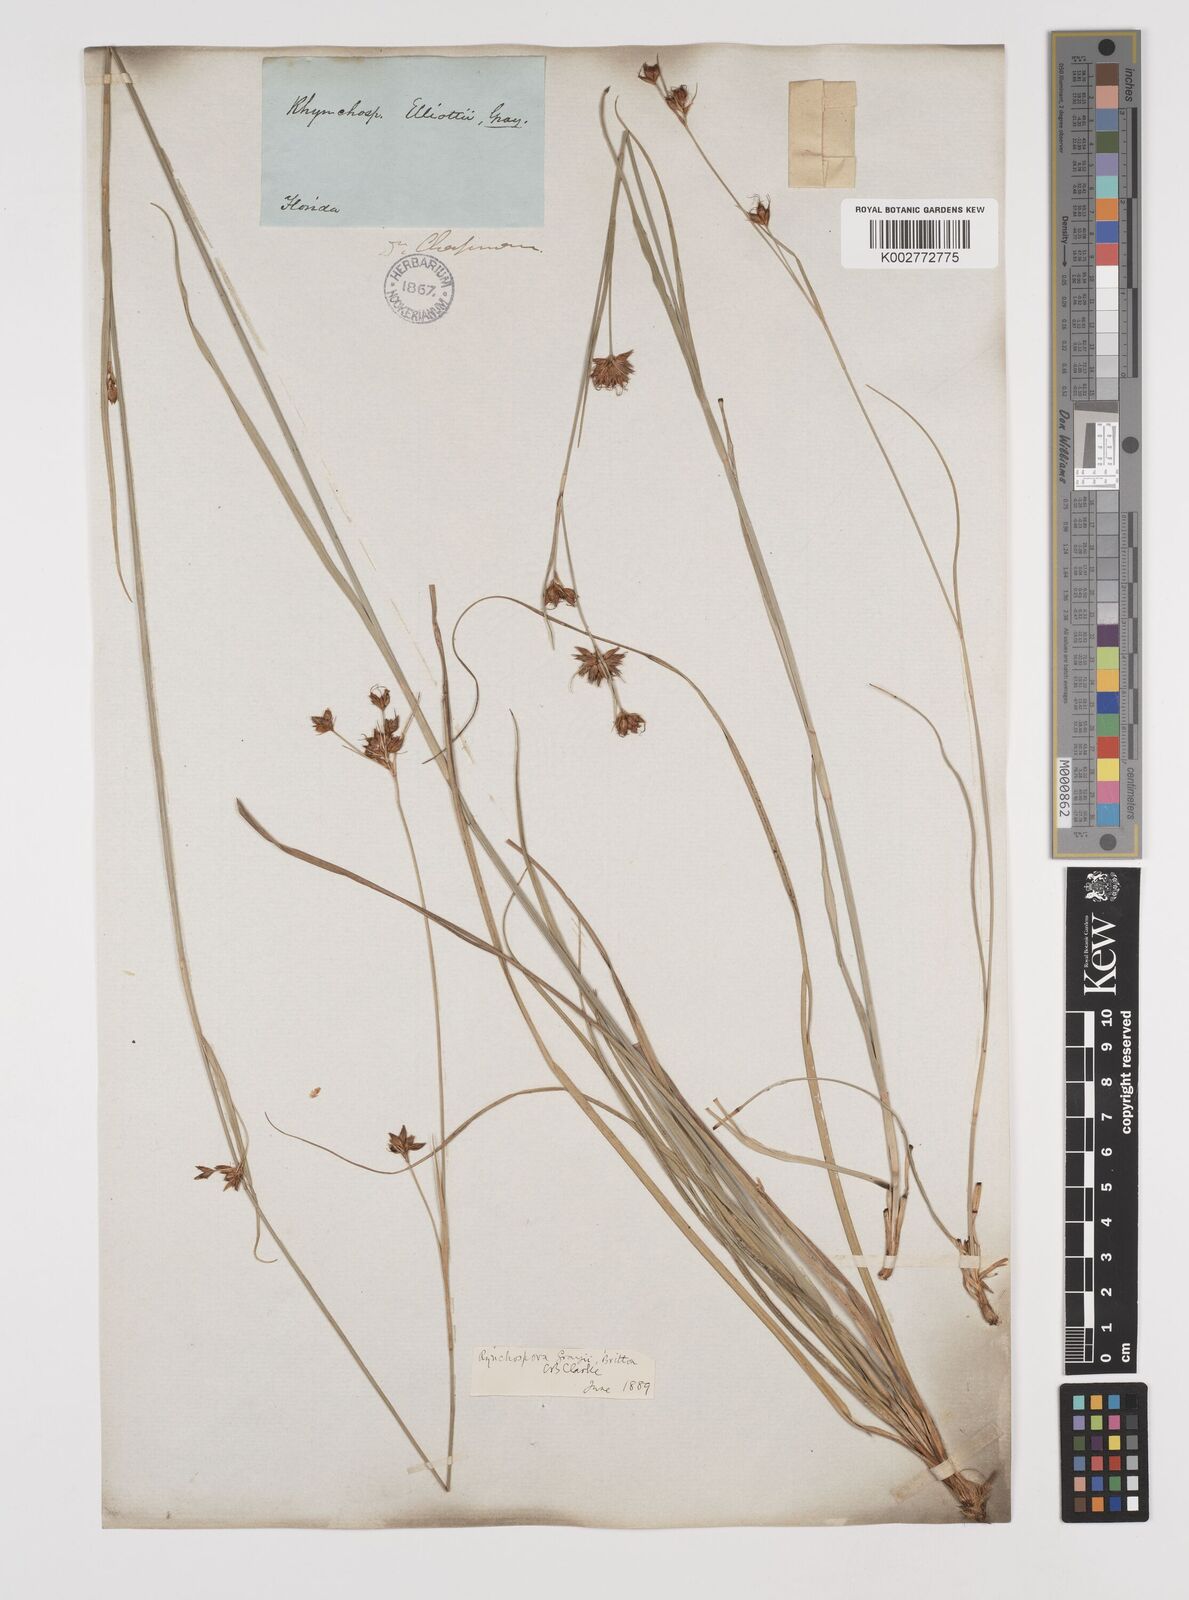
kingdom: Plantae
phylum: Tracheophyta
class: Liliopsida
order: Poales
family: Cyperaceae
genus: Rhynchospora
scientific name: Rhynchospora grayi
